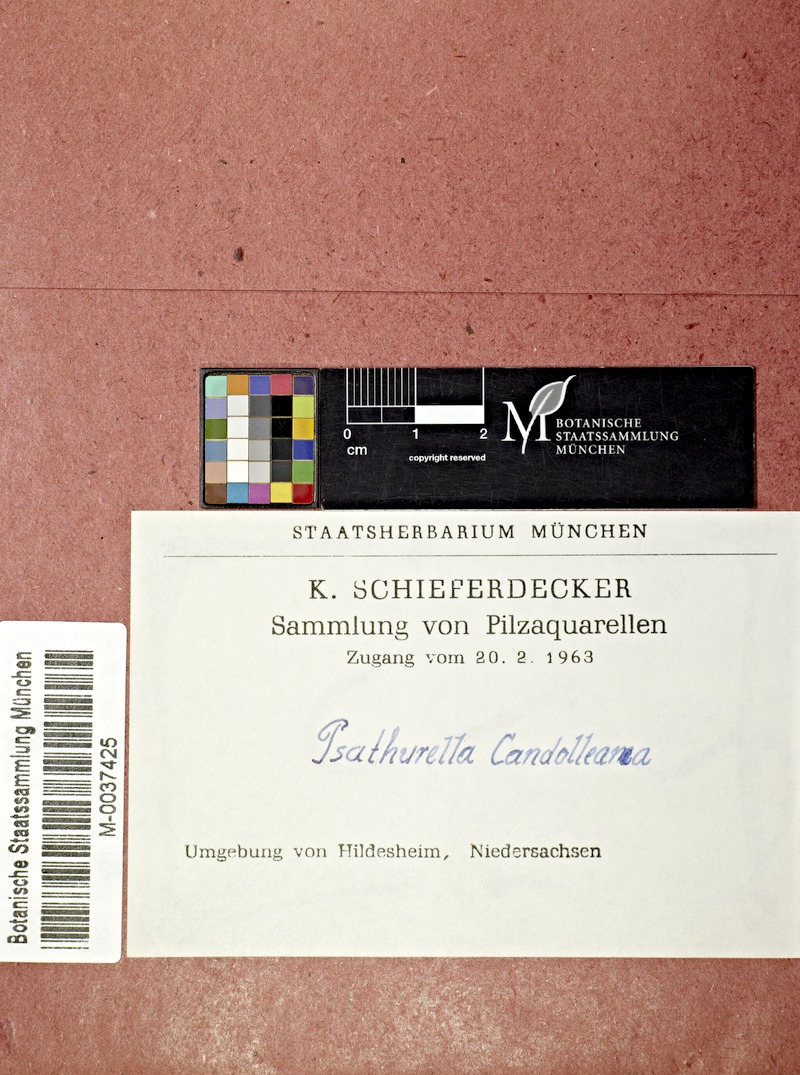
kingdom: Fungi
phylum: Basidiomycota
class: Agaricomycetes
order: Agaricales
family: Psathyrellaceae
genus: Candolleomyces
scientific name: Candolleomyces candolleanus
